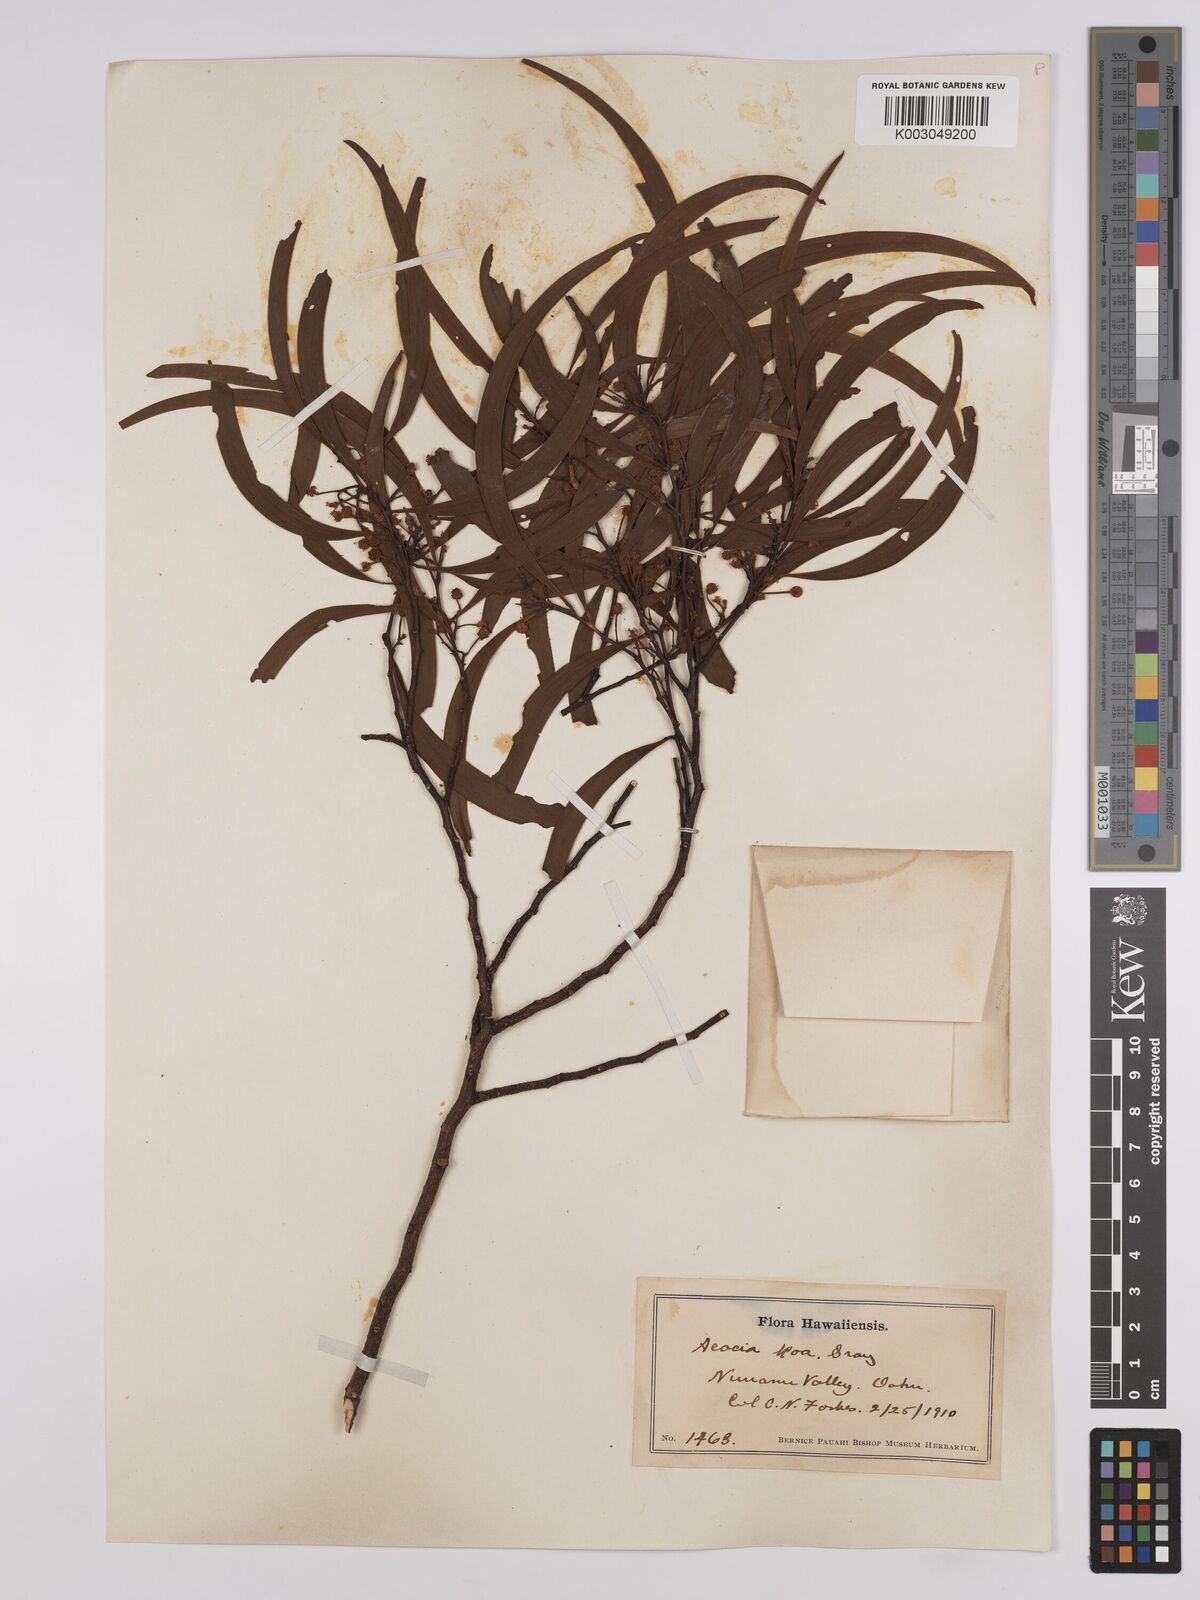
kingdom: Plantae
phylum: Tracheophyta
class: Magnoliopsida
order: Fabales
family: Fabaceae
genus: Acacia
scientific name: Acacia koa
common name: Gray koa
